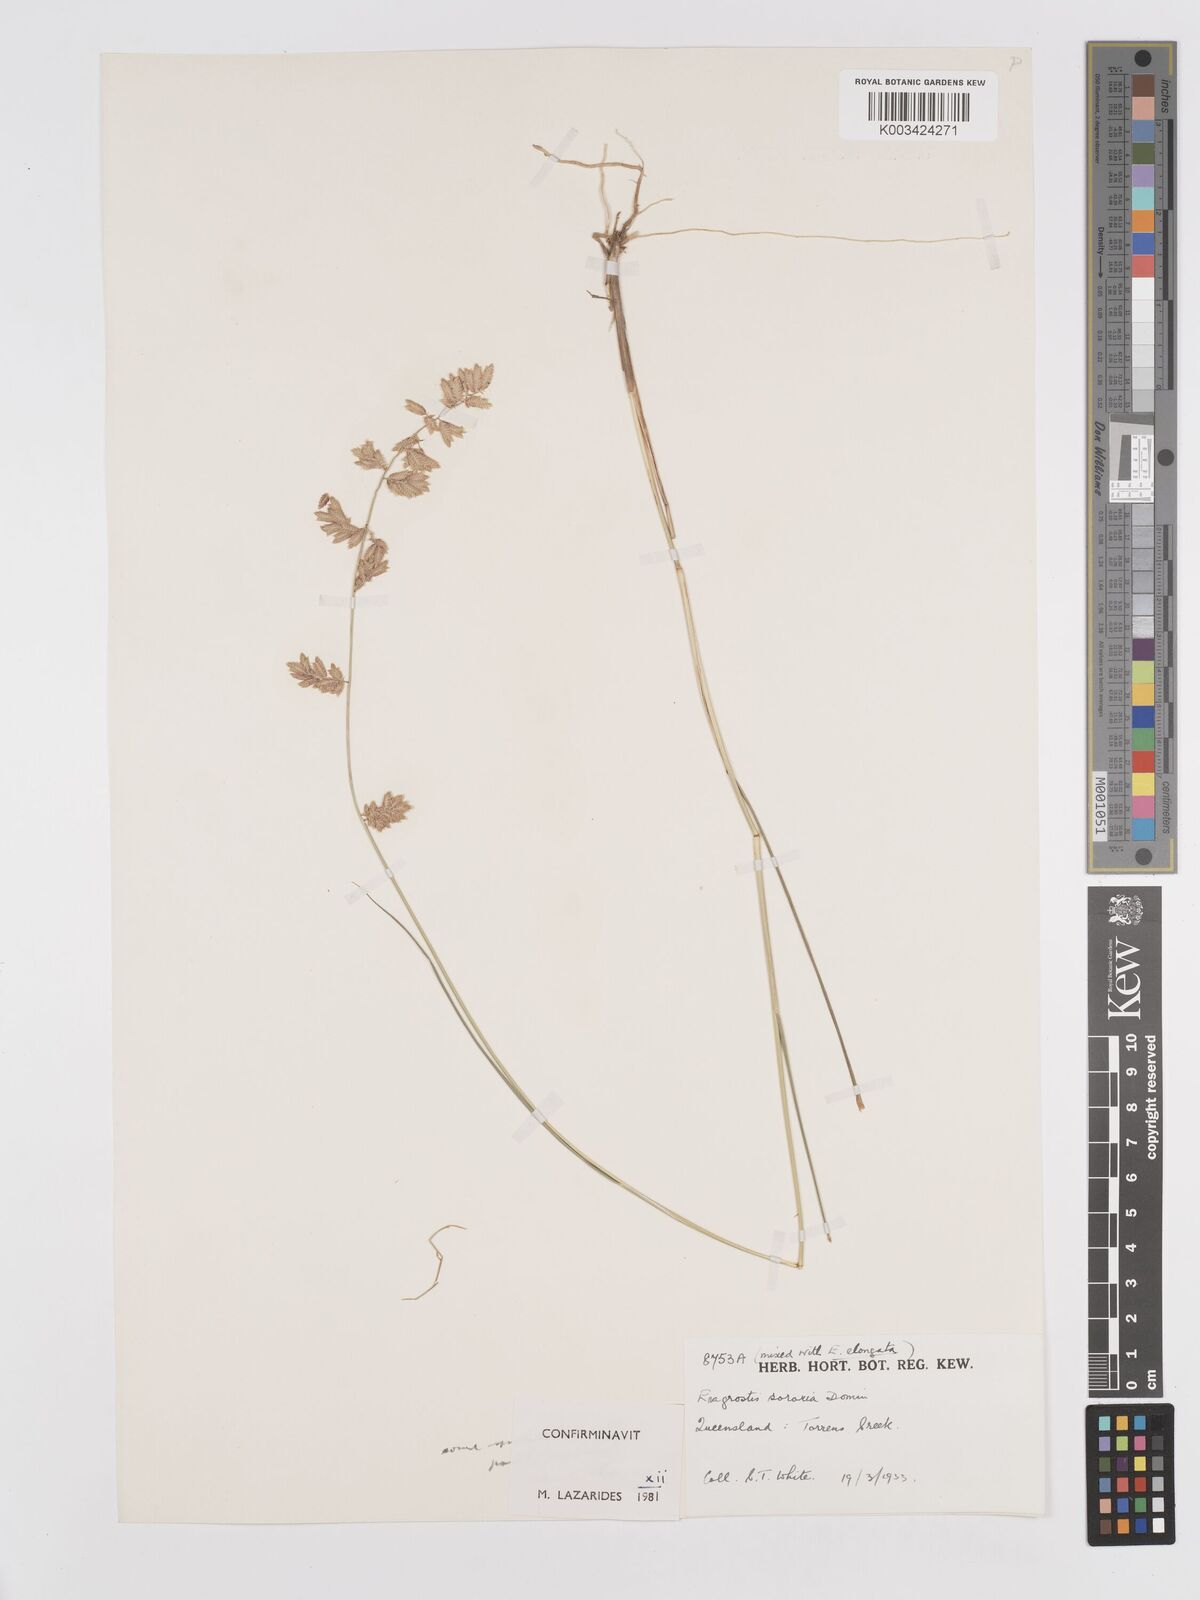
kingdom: Plantae
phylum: Tracheophyta
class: Liliopsida
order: Poales
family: Poaceae
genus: Eragrostis
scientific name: Eragrostis sororia
